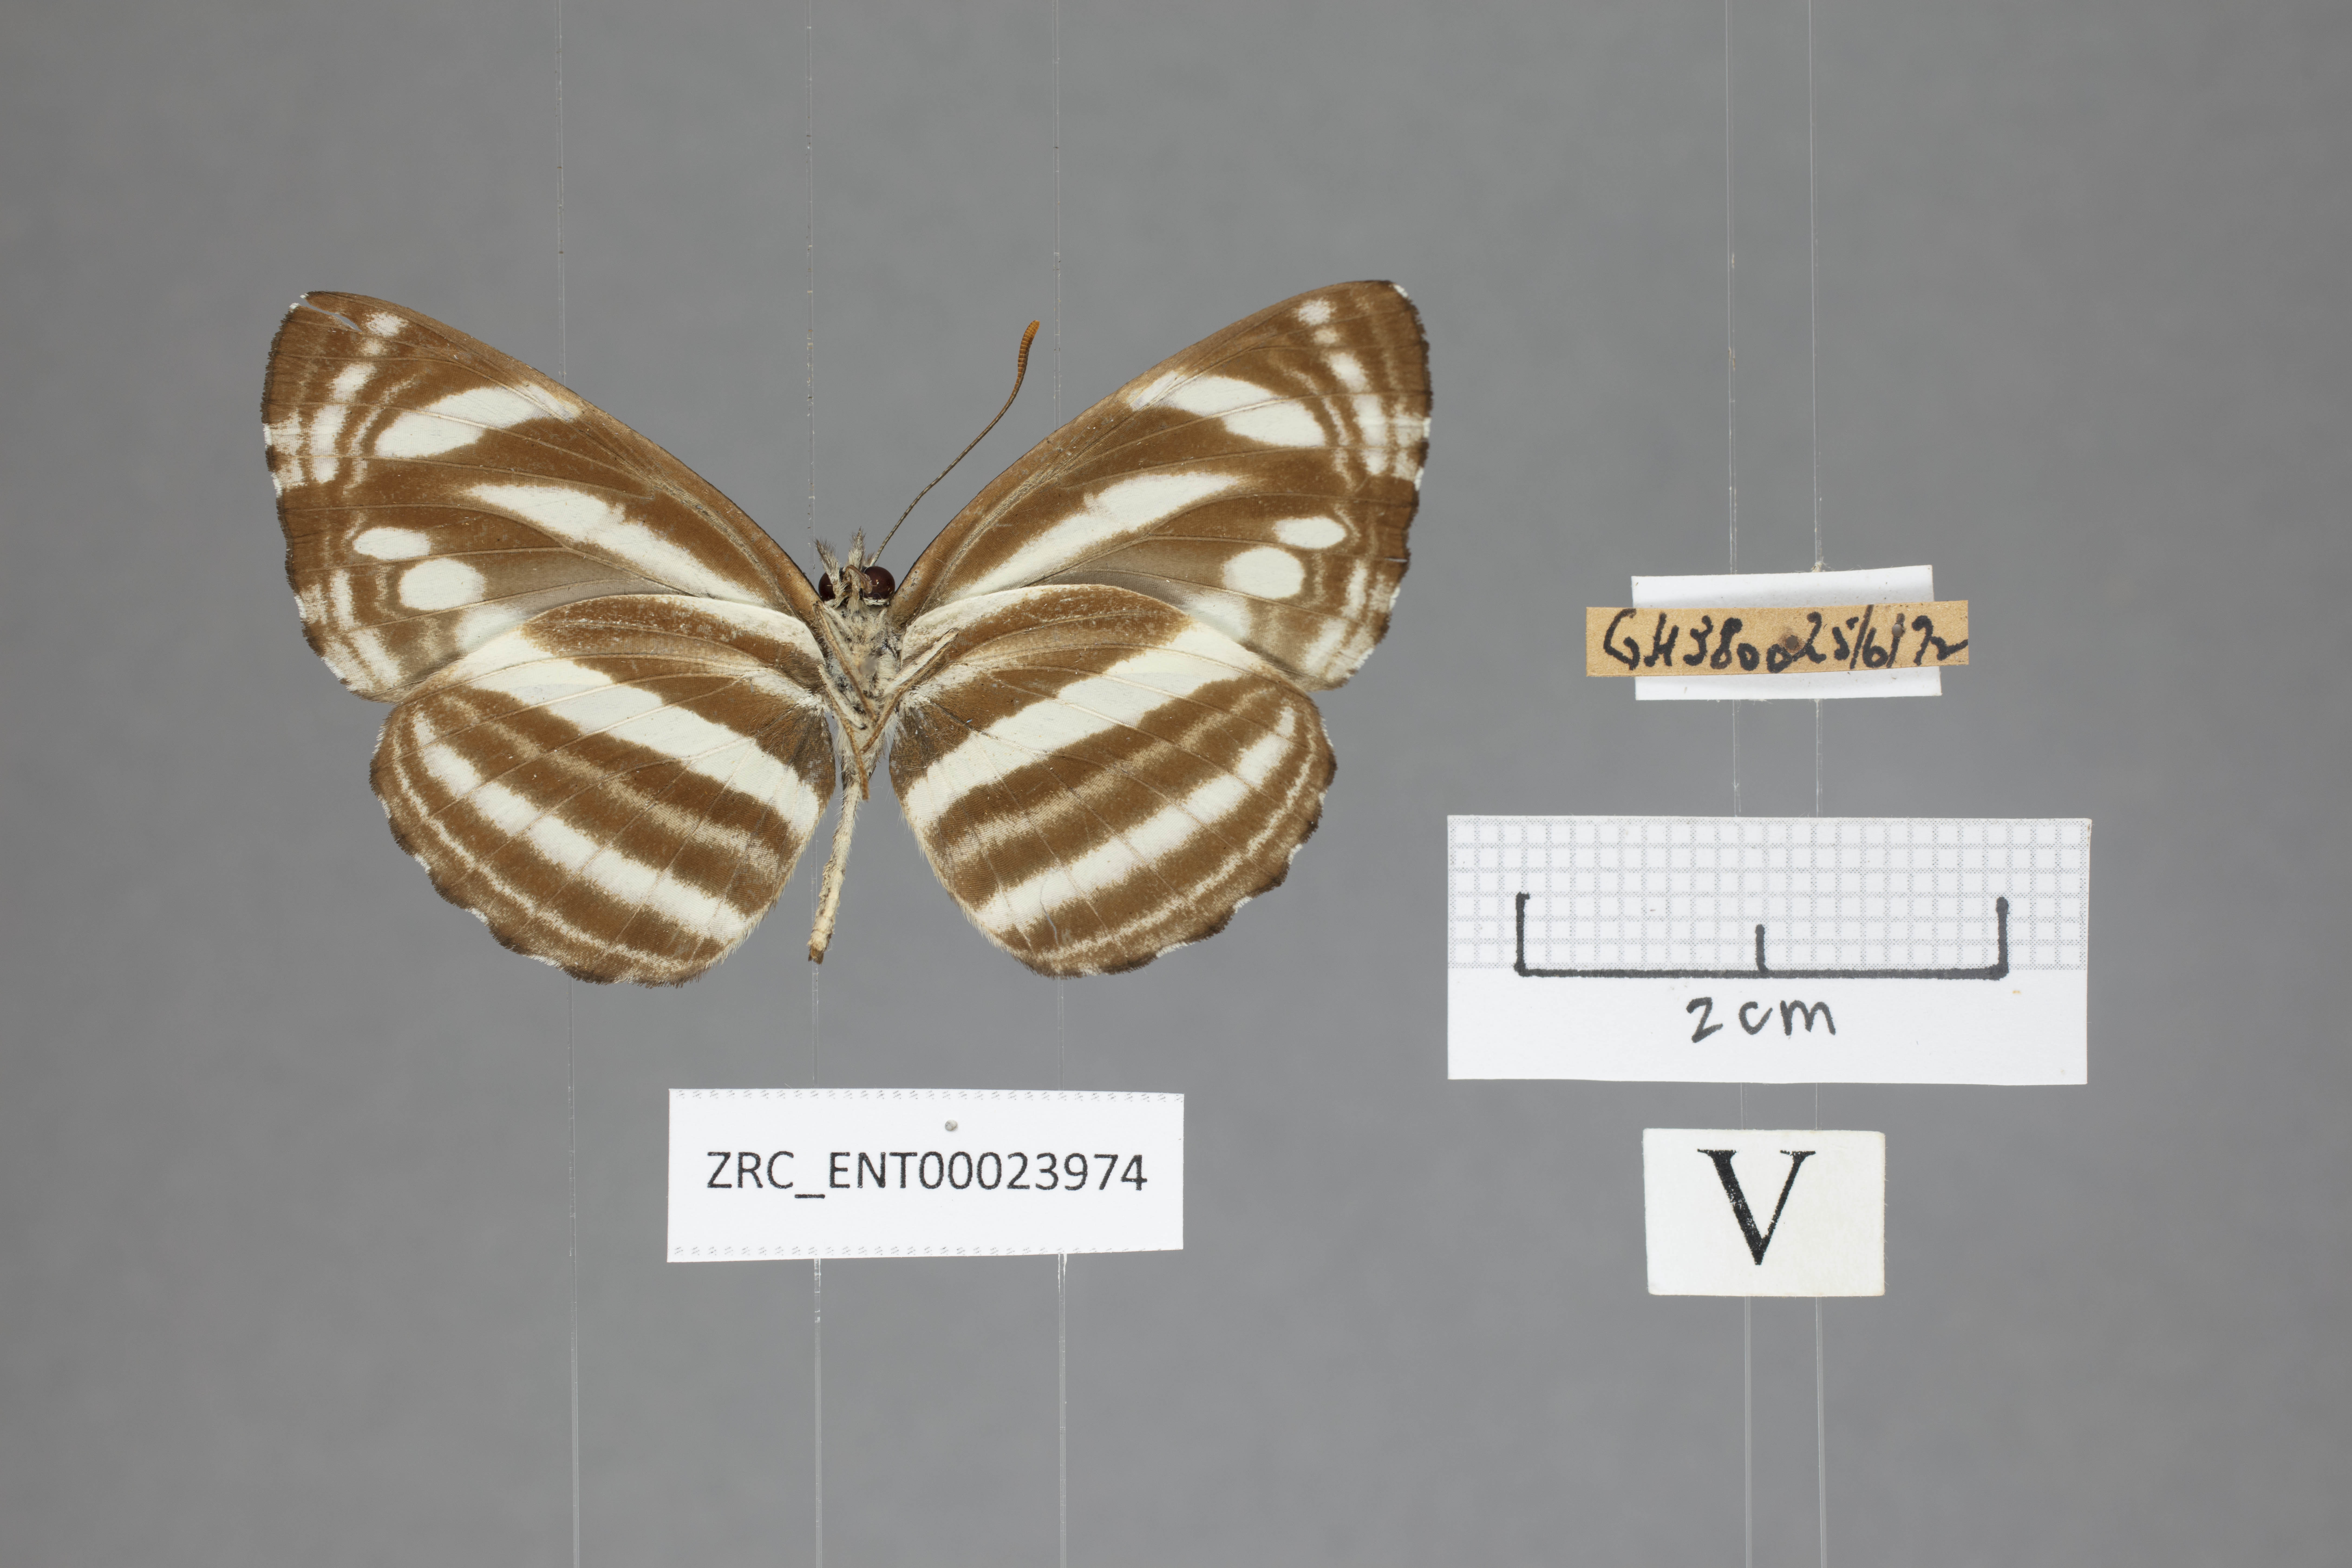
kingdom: Animalia
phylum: Arthropoda
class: Insecta
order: Lepidoptera
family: Nymphalidae
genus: Neptis
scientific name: Neptis clinioides
